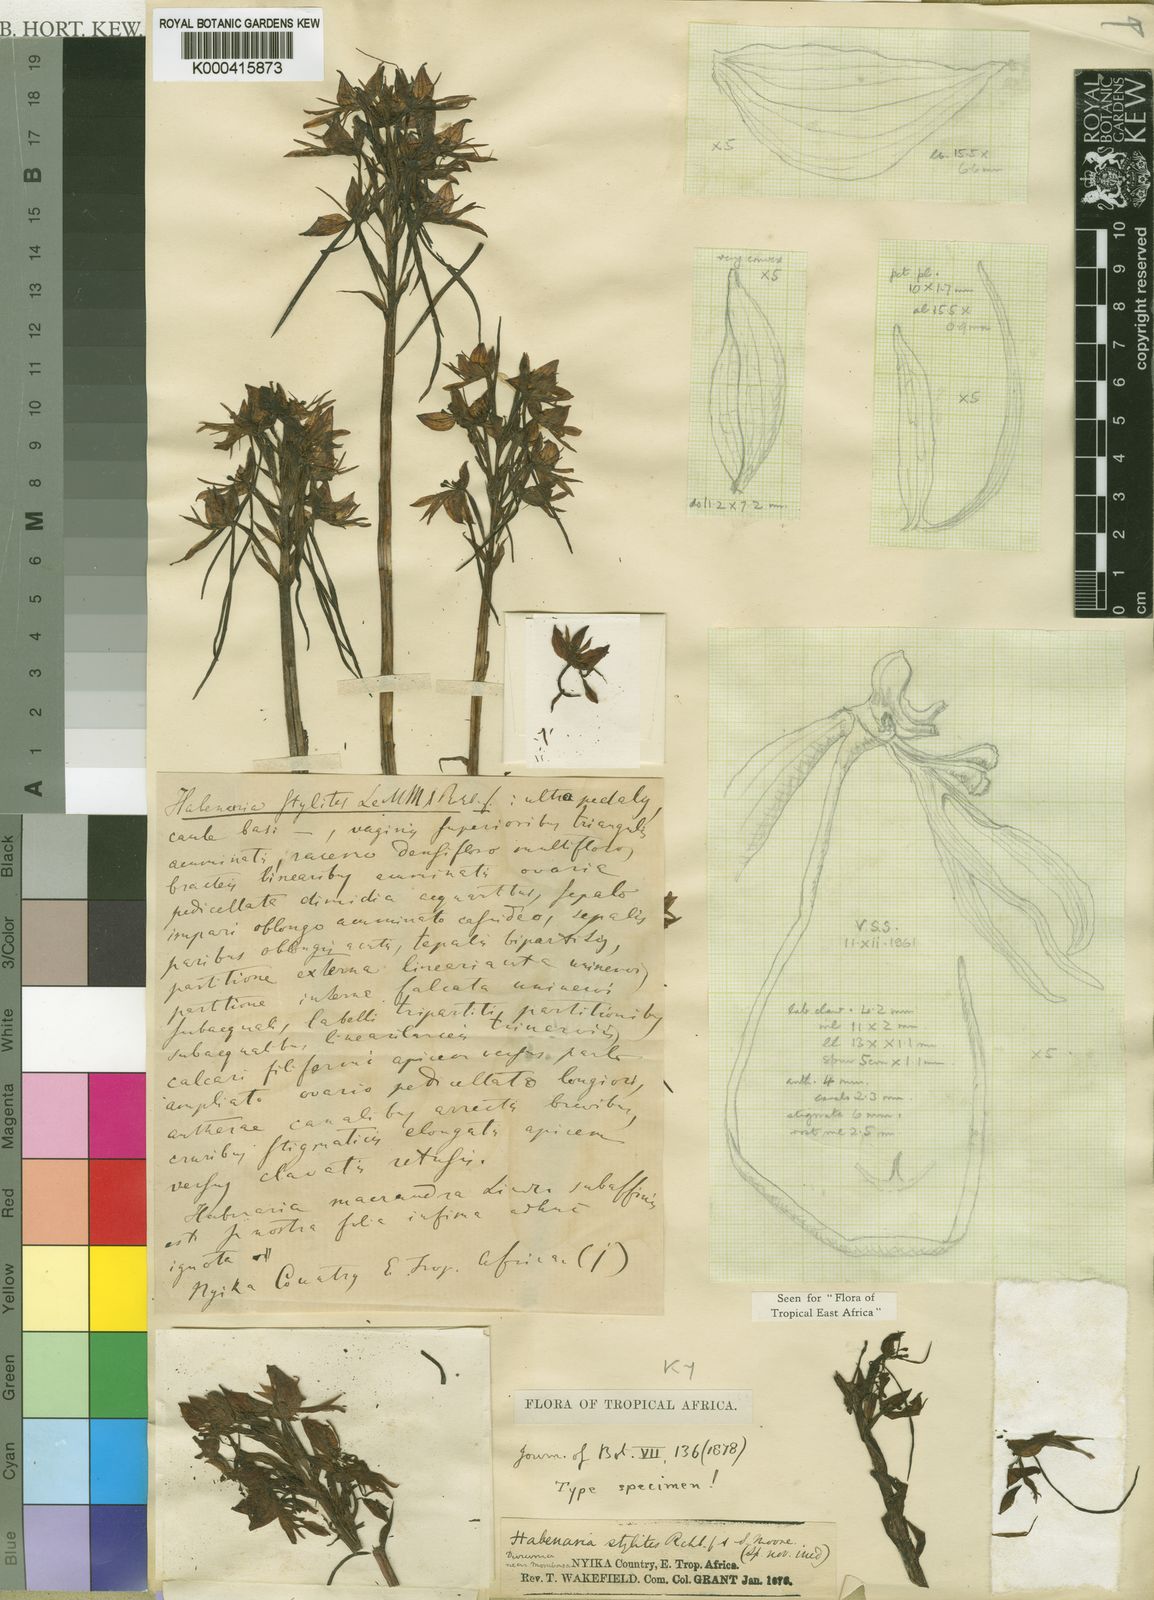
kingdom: Plantae
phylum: Tracheophyta
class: Liliopsida
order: Asparagales
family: Orchidaceae
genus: Habenaria
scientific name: Habenaria stylites
